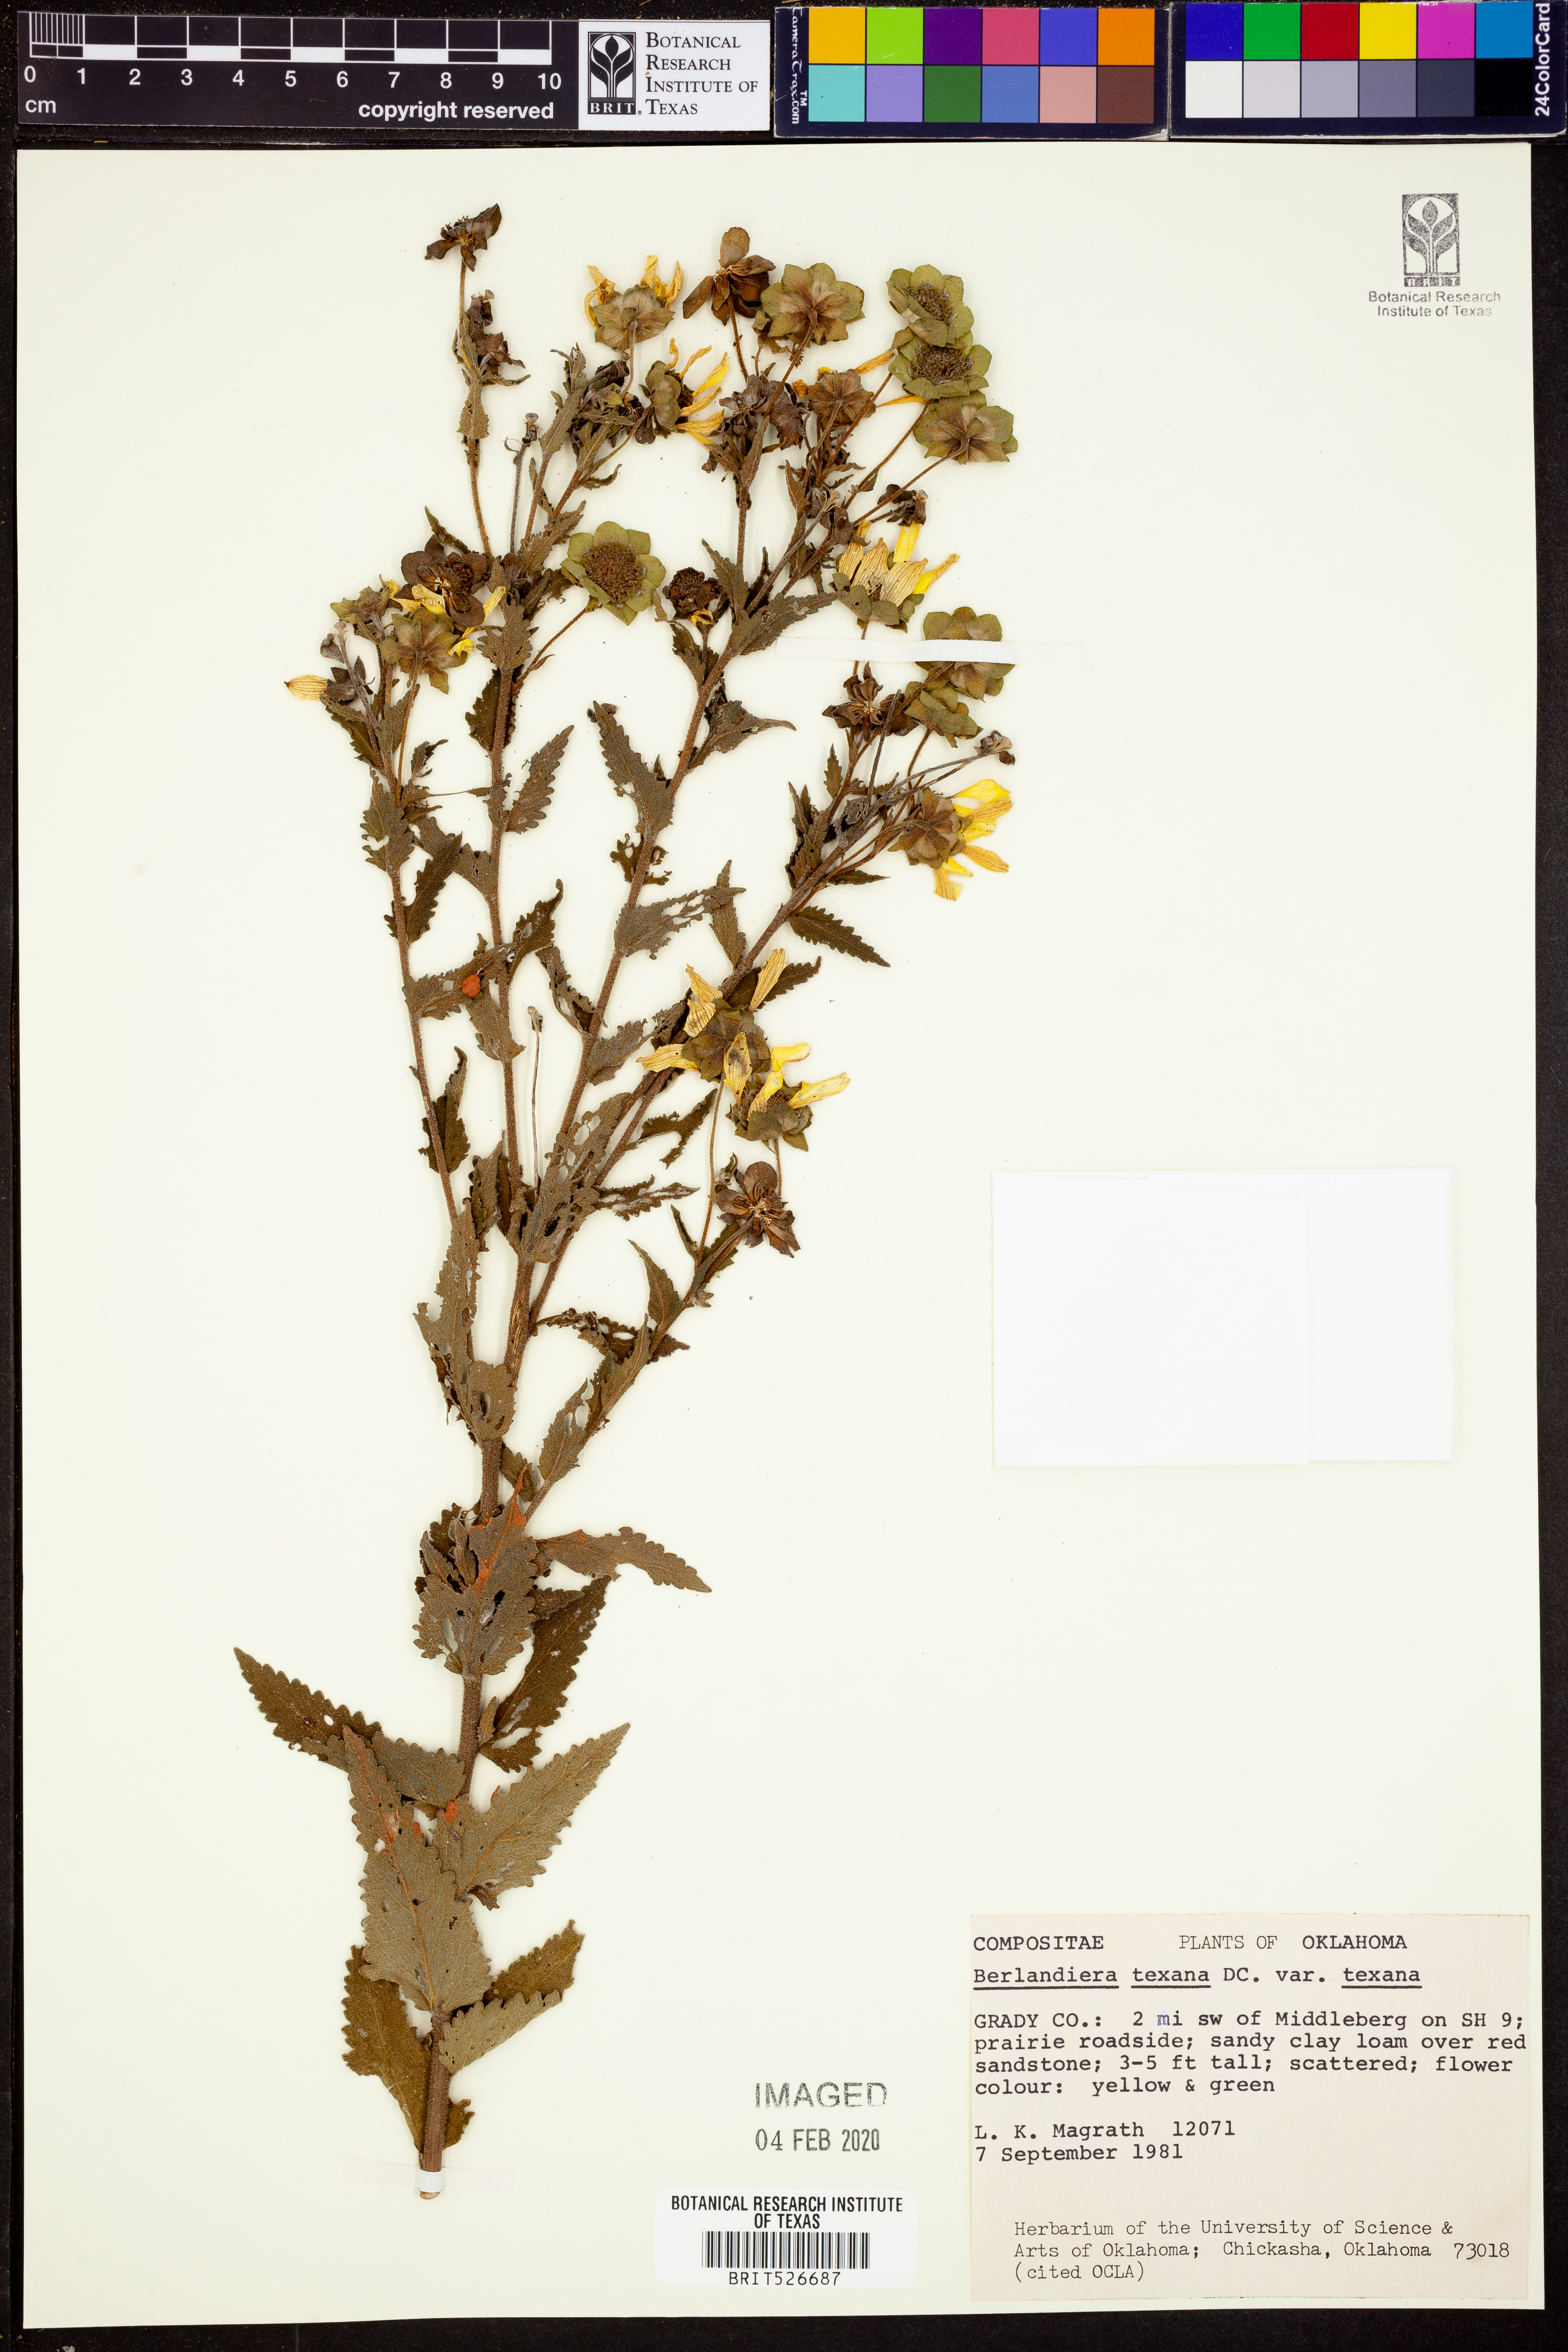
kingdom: Plantae
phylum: Tracheophyta
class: Magnoliopsida
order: Asterales
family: Asteraceae
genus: Berlandiera
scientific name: Berlandiera texana
